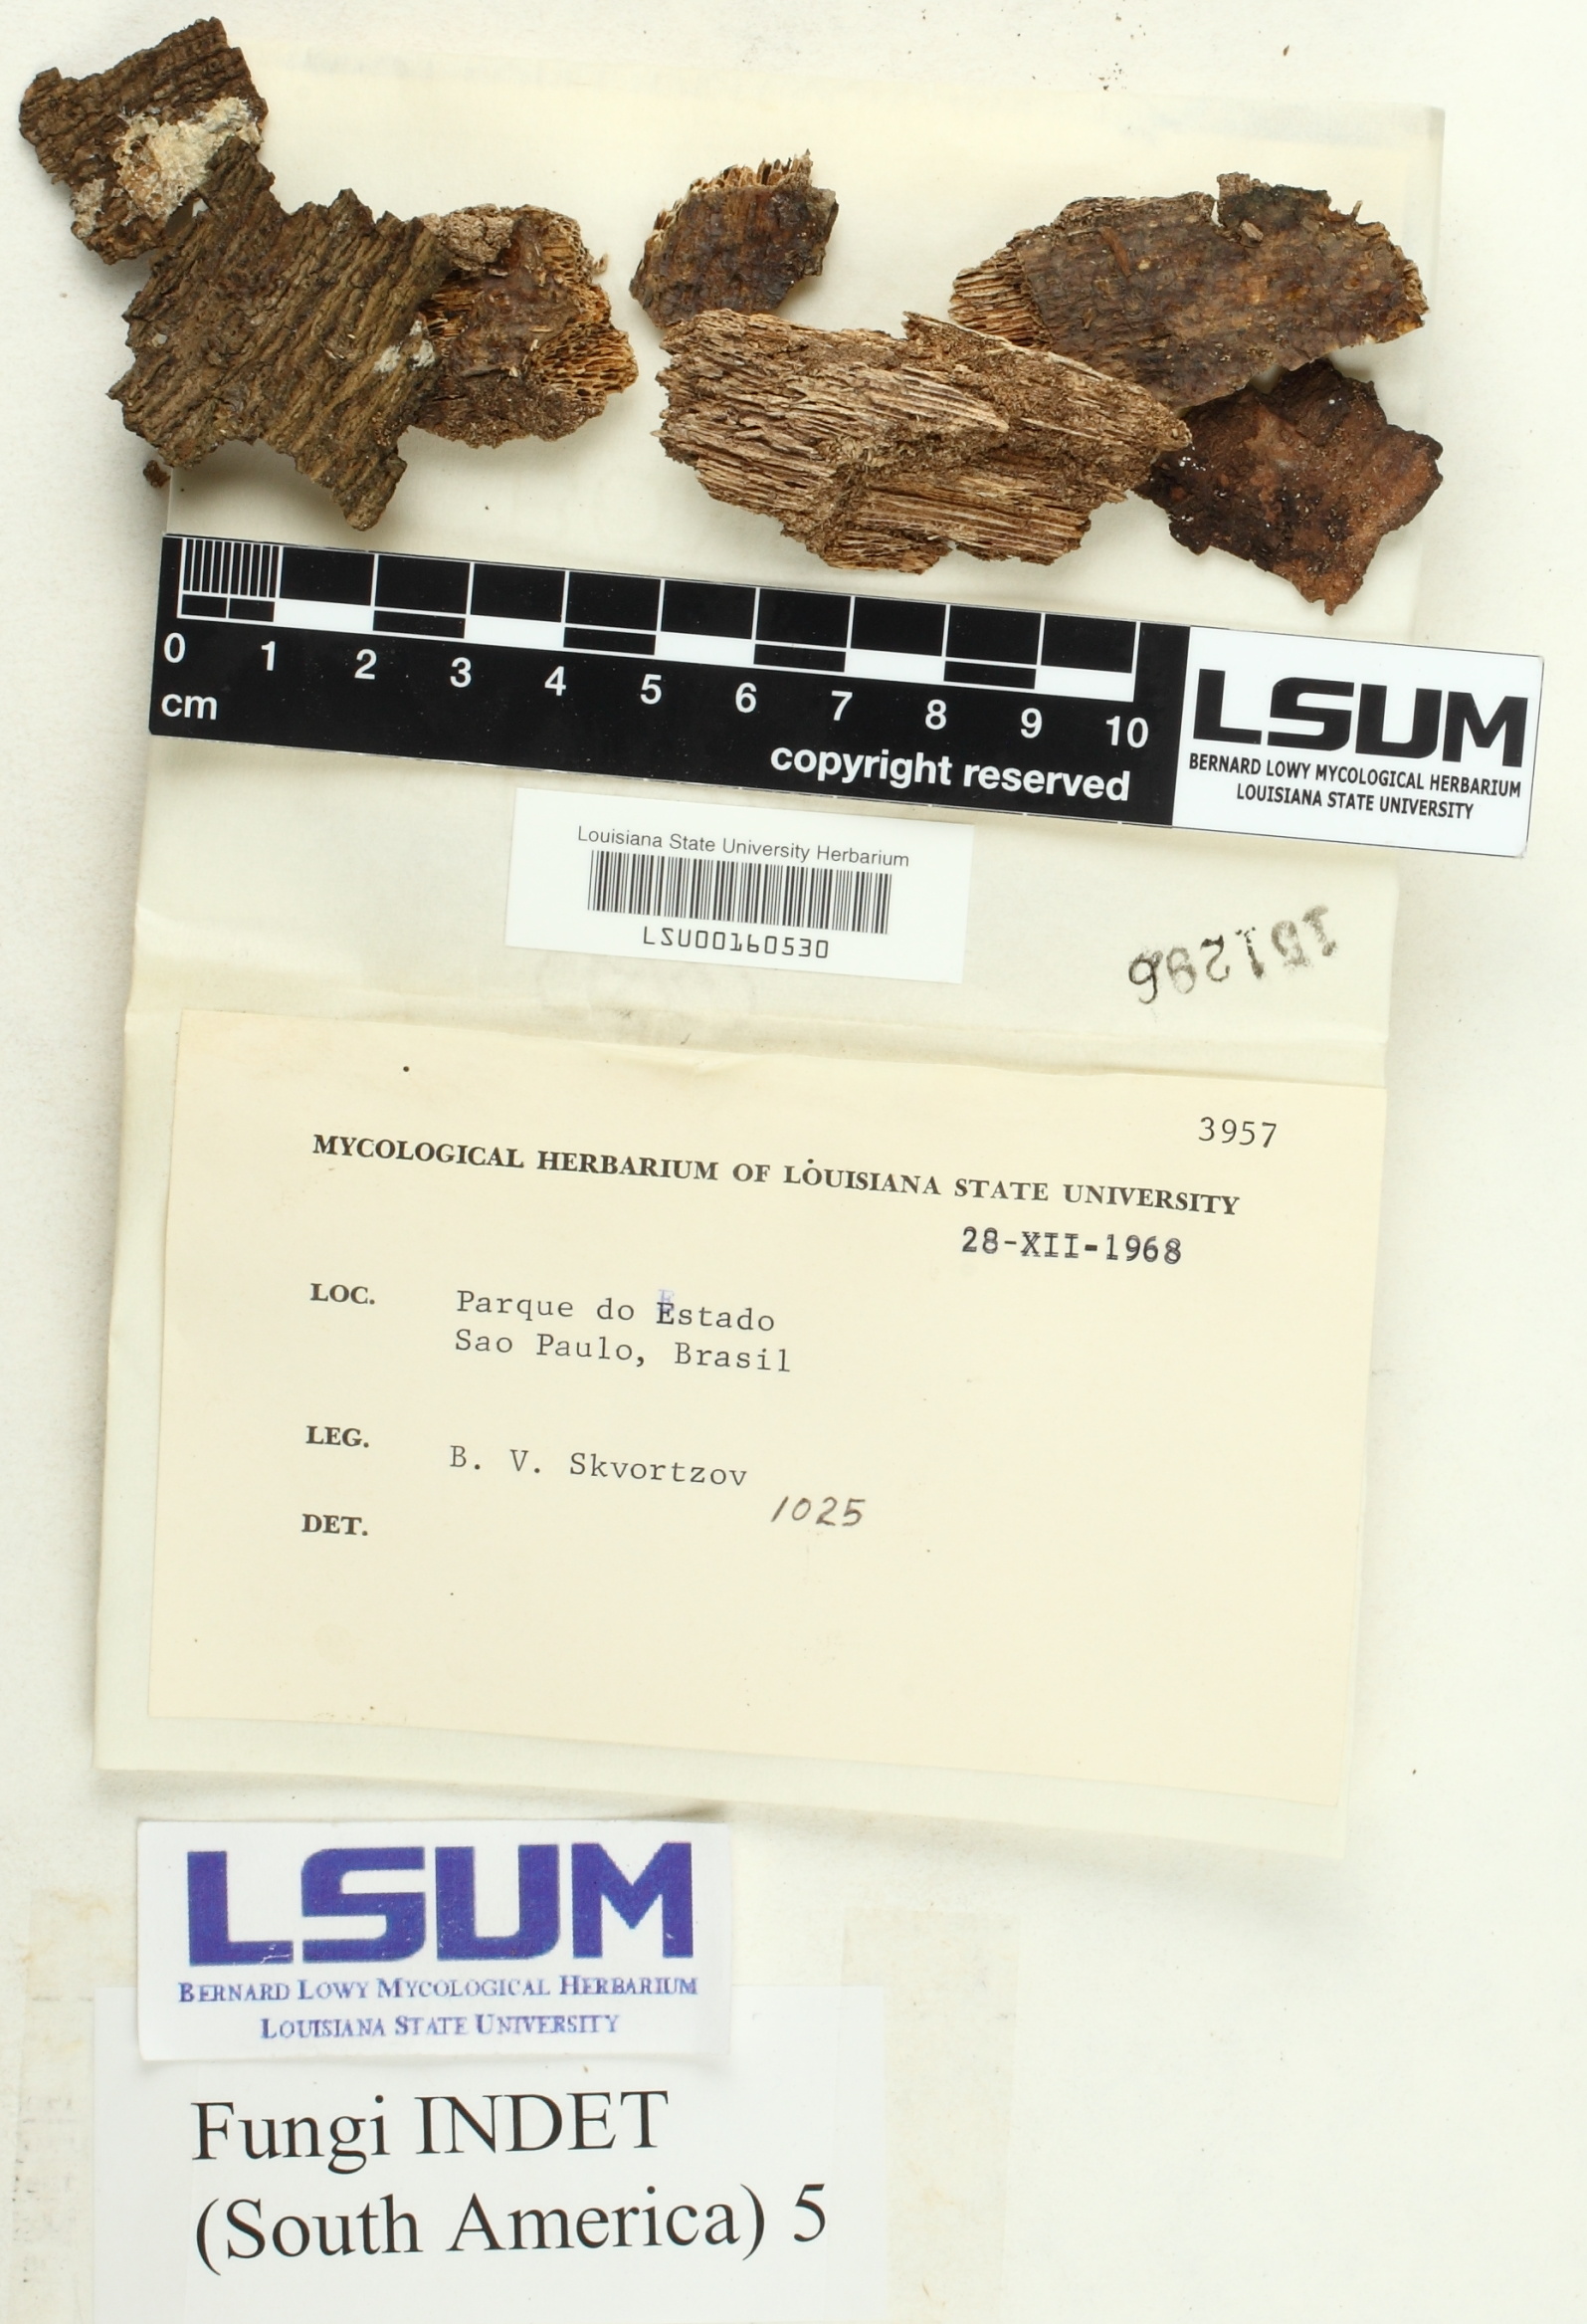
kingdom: Fungi
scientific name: Fungi
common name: Fungi
